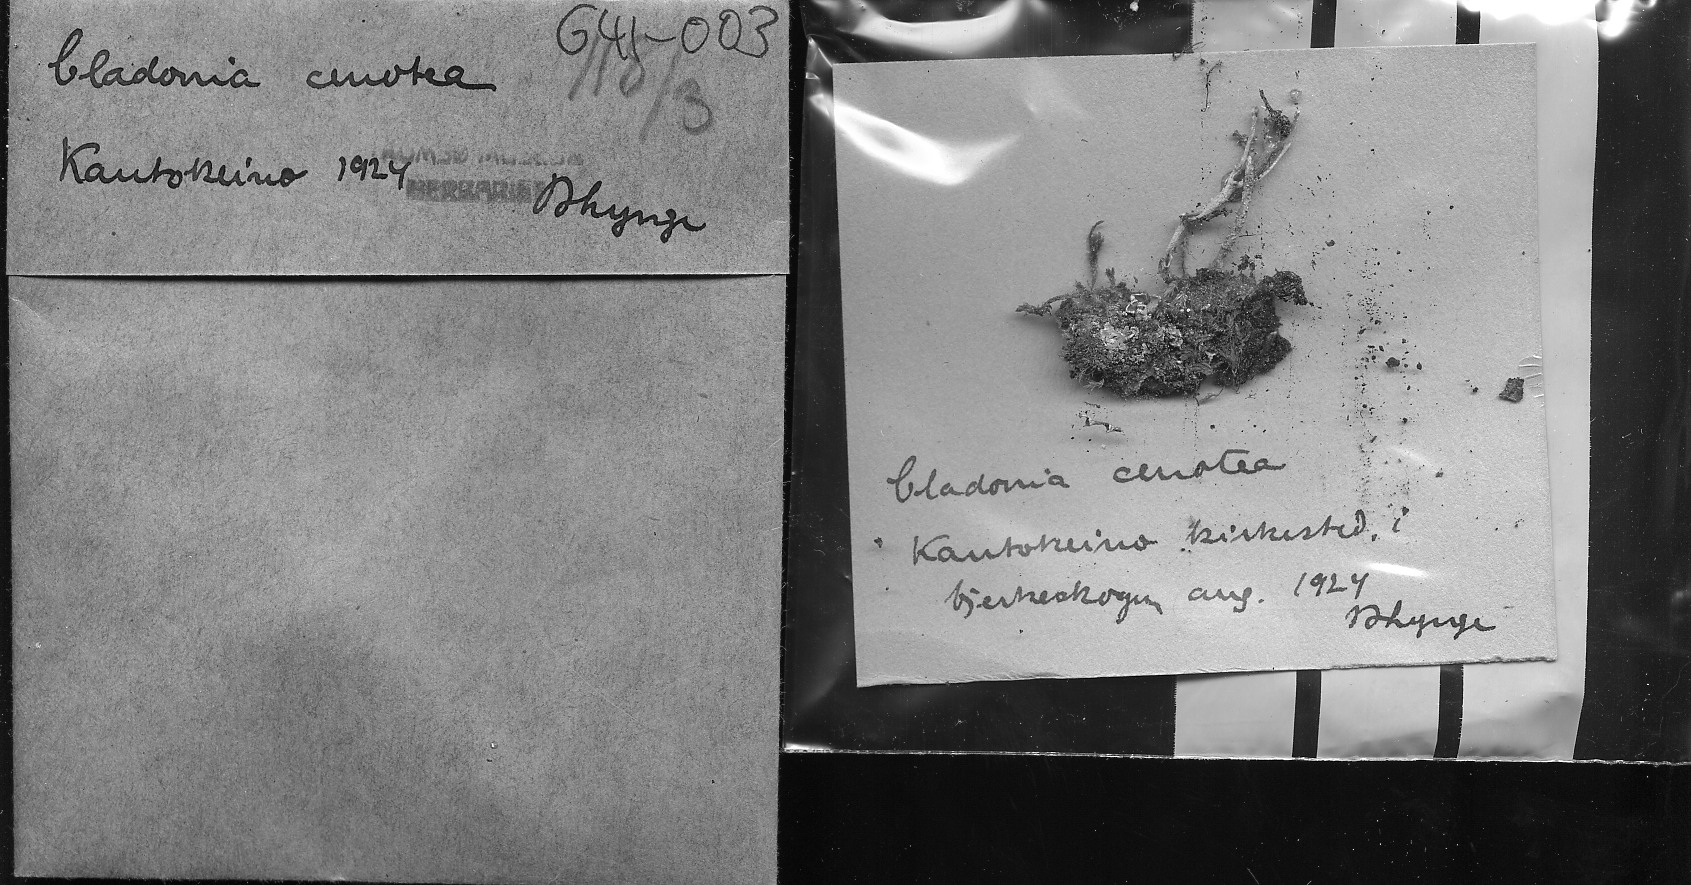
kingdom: Fungi
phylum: Ascomycota
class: Lecanoromycetes
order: Lecanorales
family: Cladoniaceae
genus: Cladonia
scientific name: Cladonia cenotea
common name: Powdered funnel lichen
